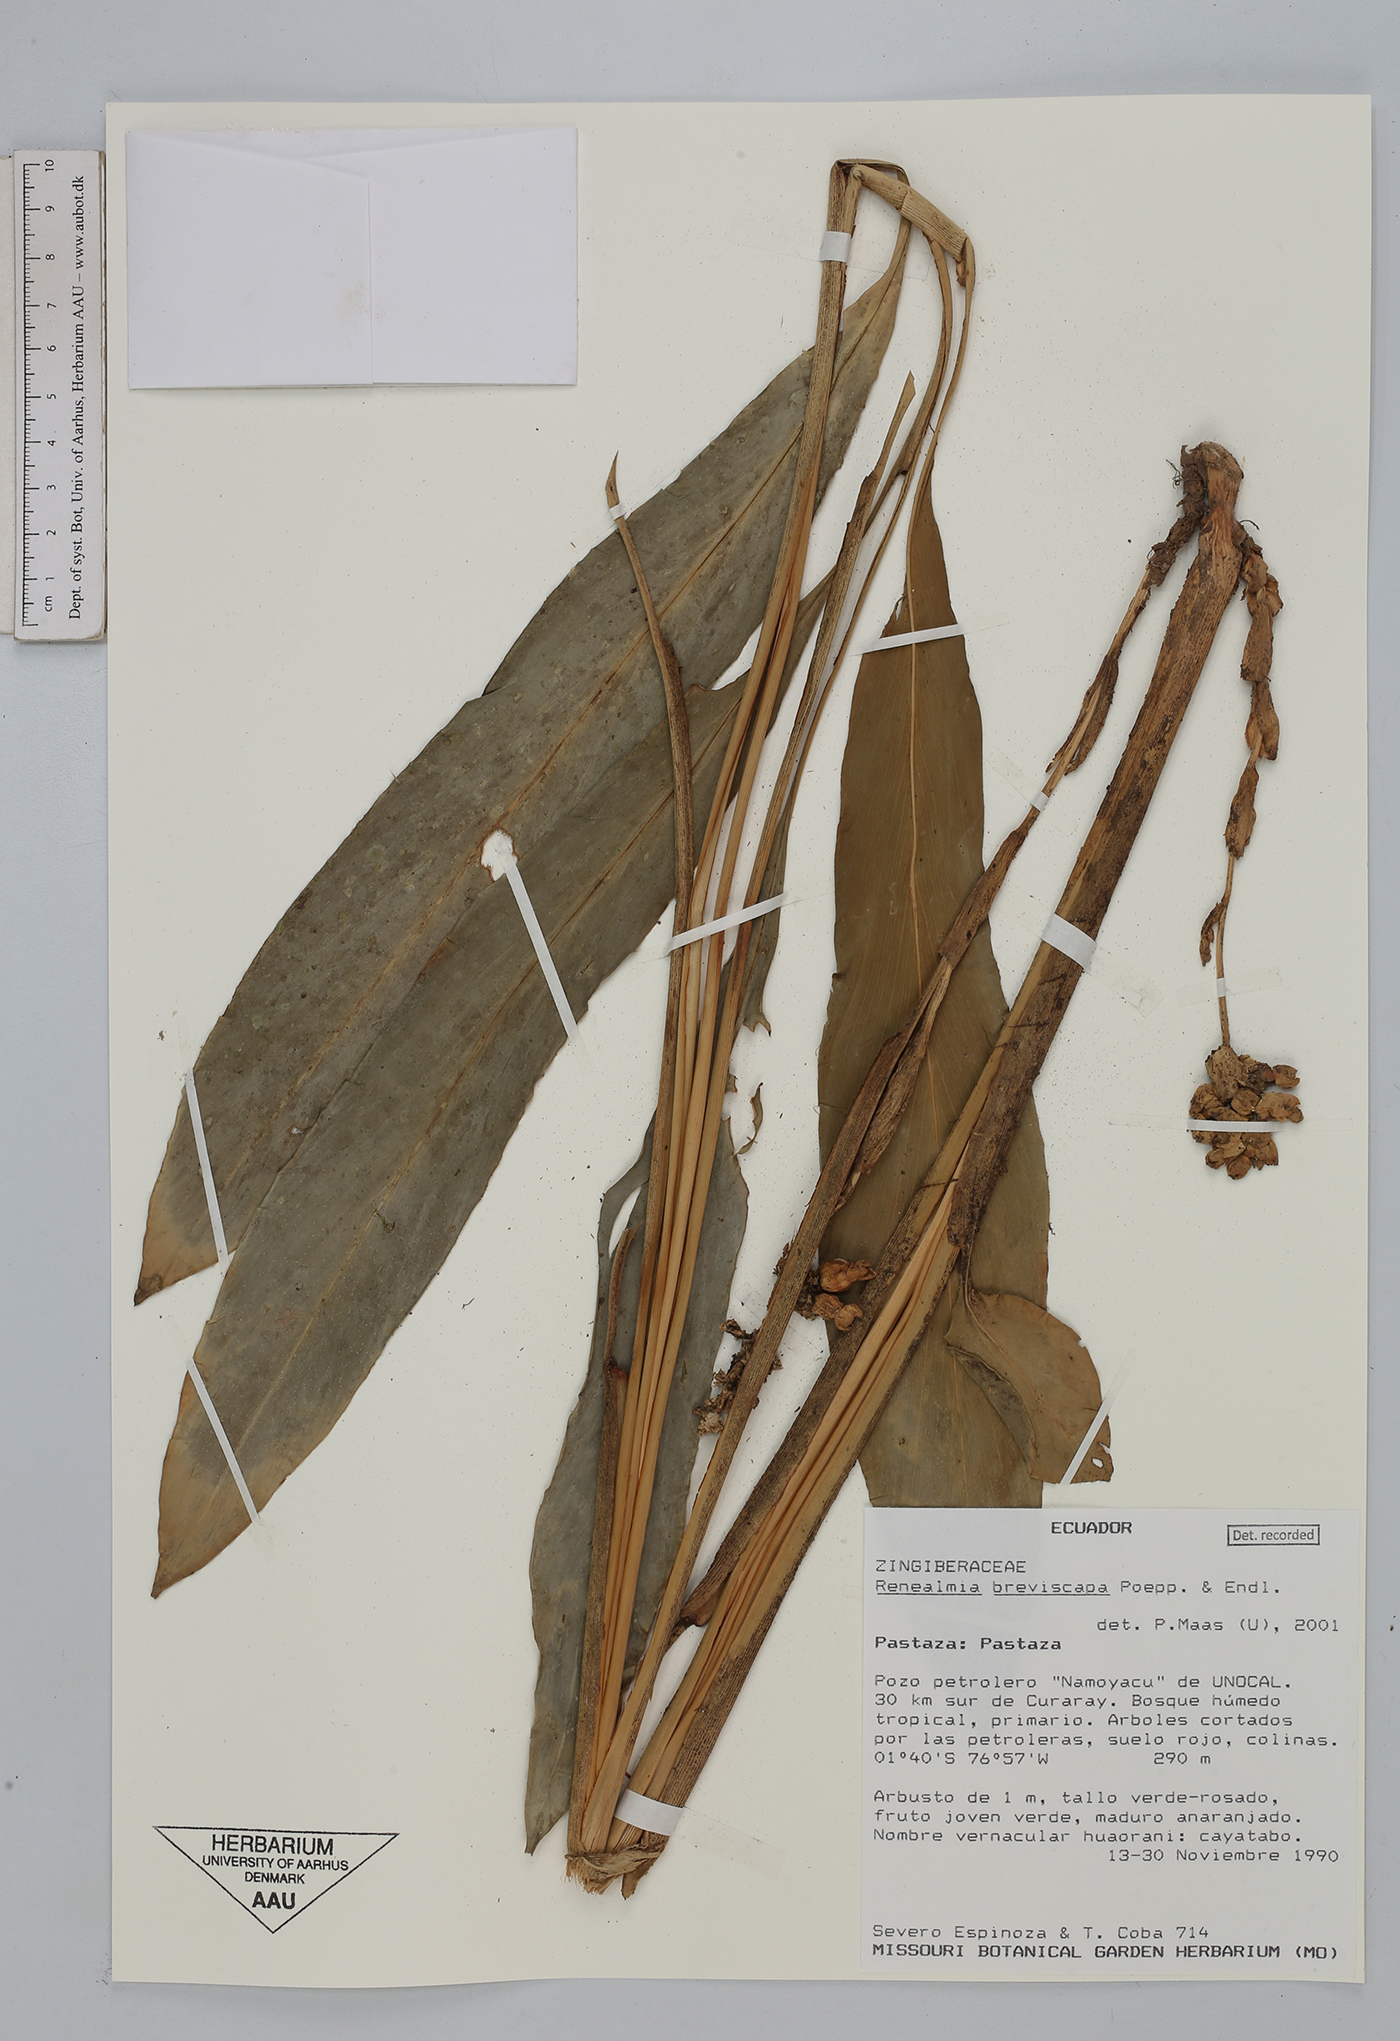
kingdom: Plantae
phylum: Tracheophyta
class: Liliopsida
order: Zingiberales
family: Zingiberaceae
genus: Renealmia
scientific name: Renealmia breviscapa
